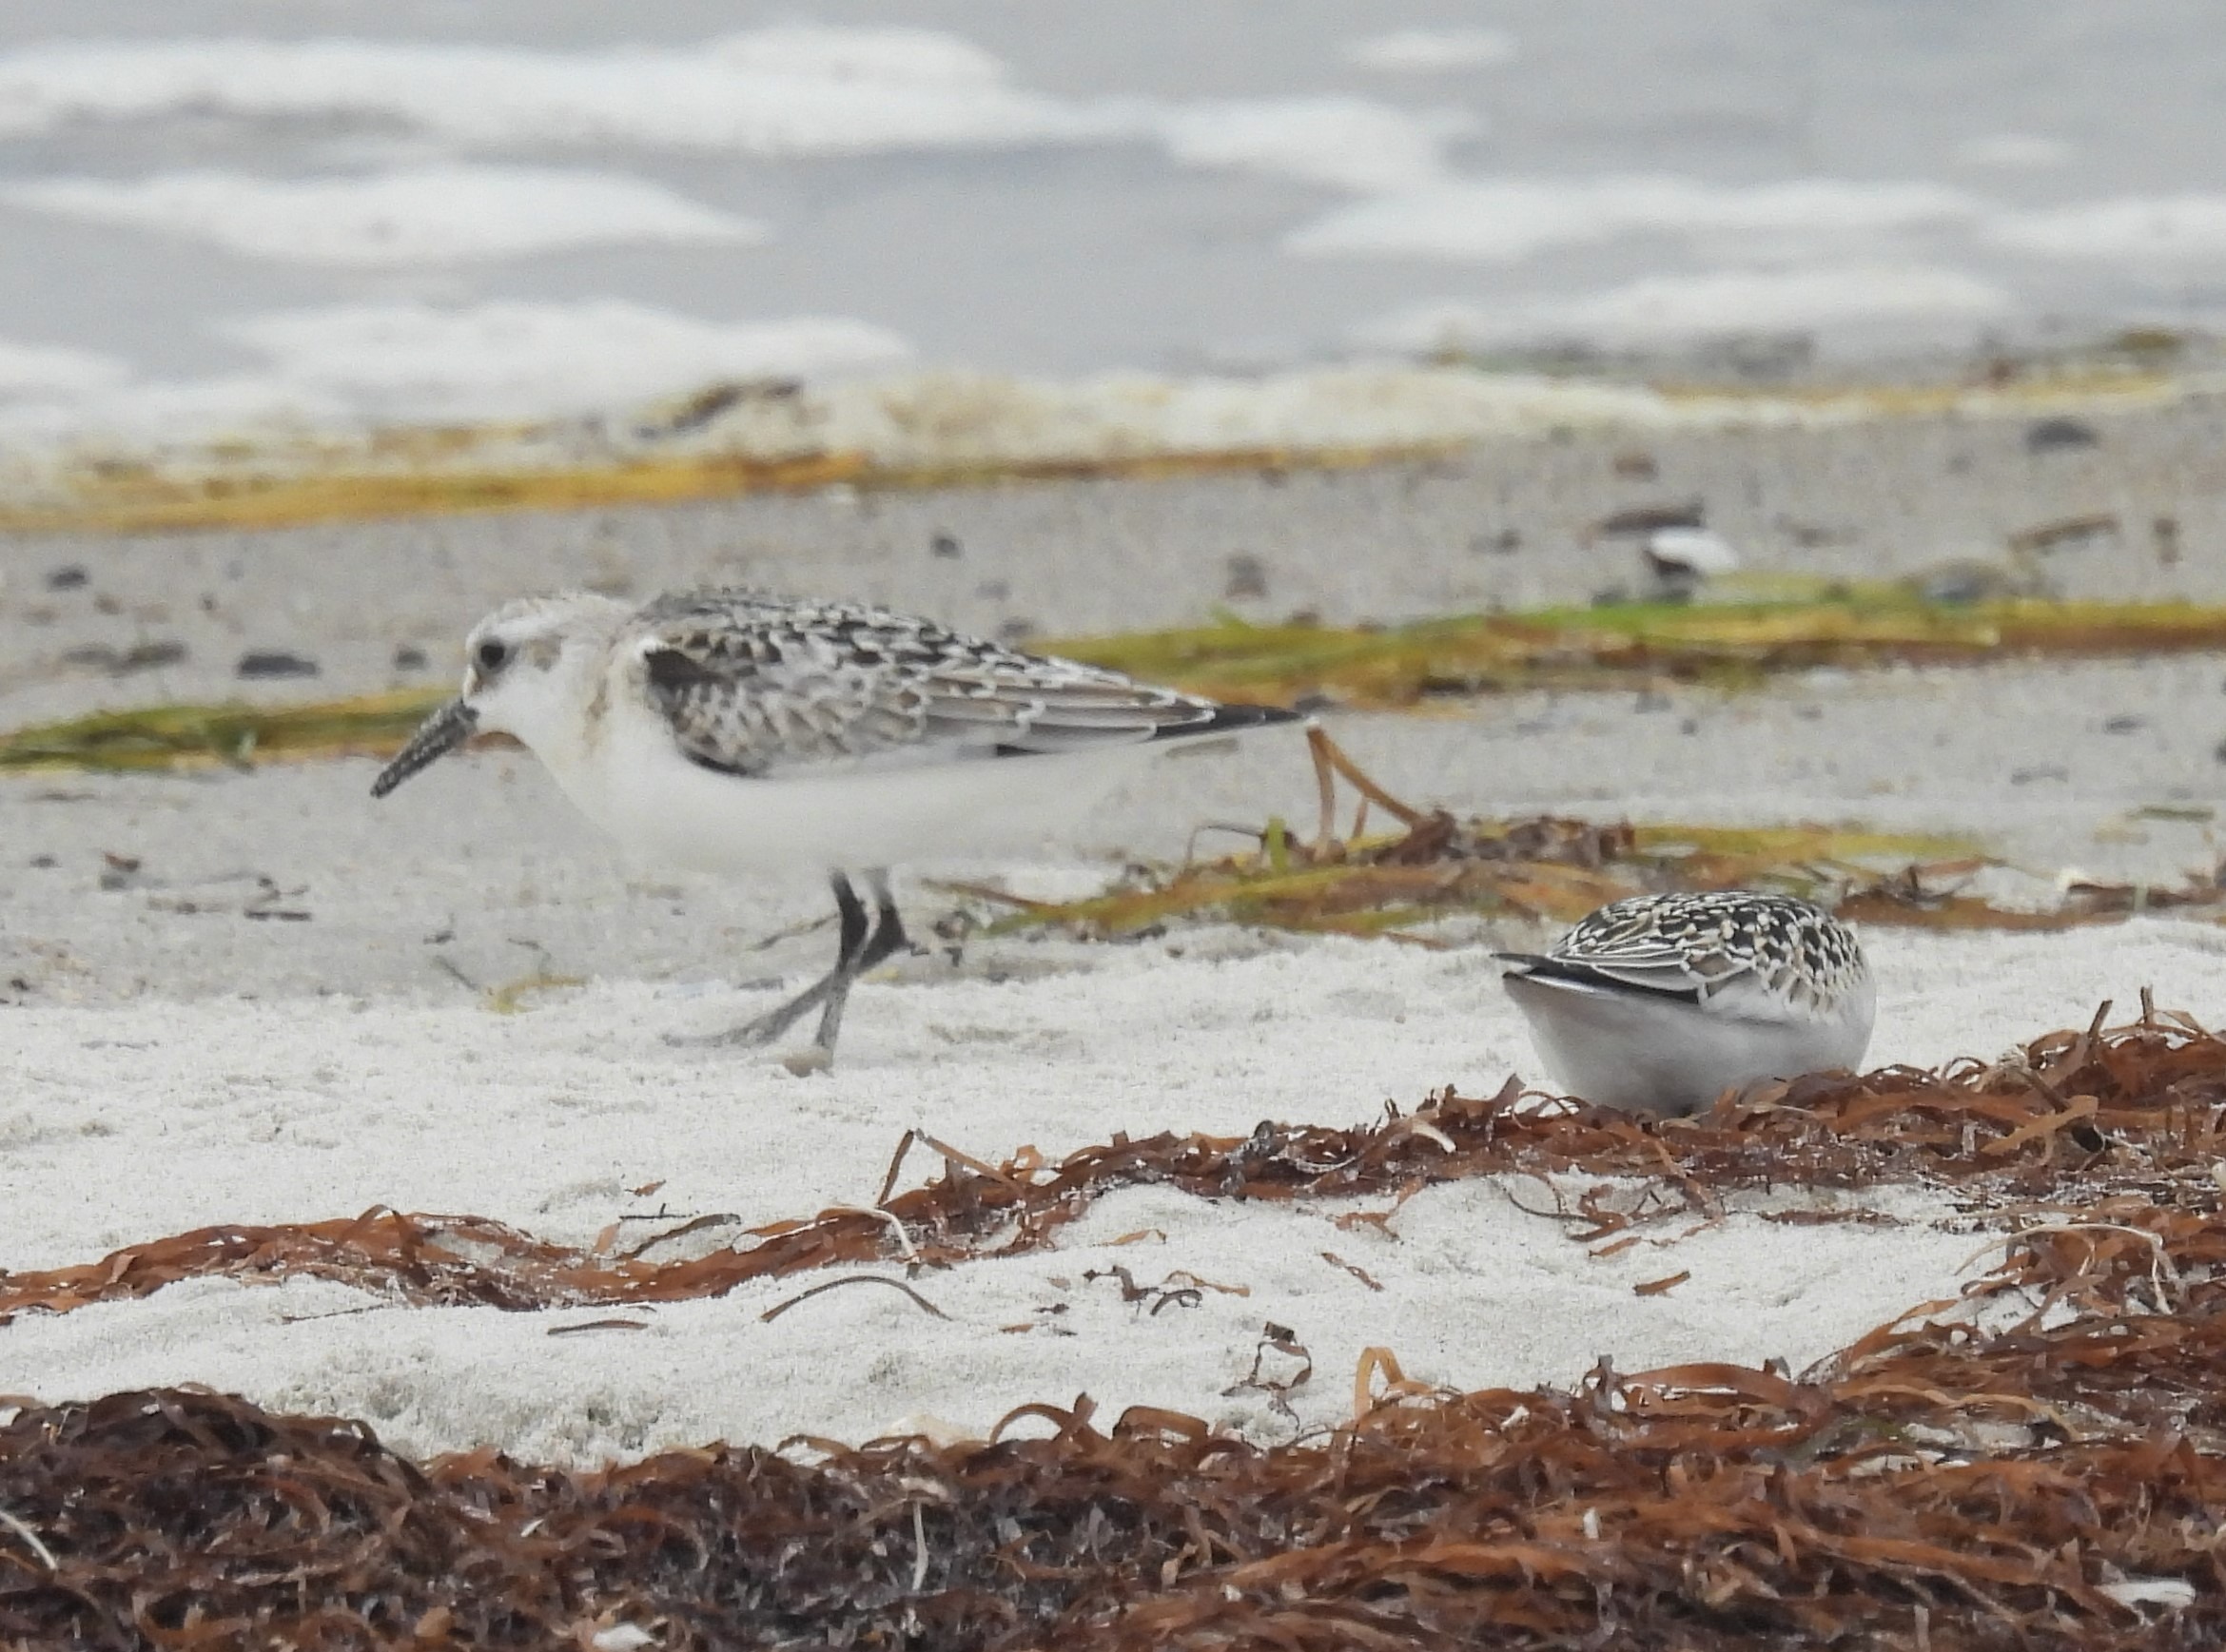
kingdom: Animalia
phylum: Chordata
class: Aves
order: Charadriiformes
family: Scolopacidae
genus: Calidris
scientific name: Calidris alba
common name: Sandløber
